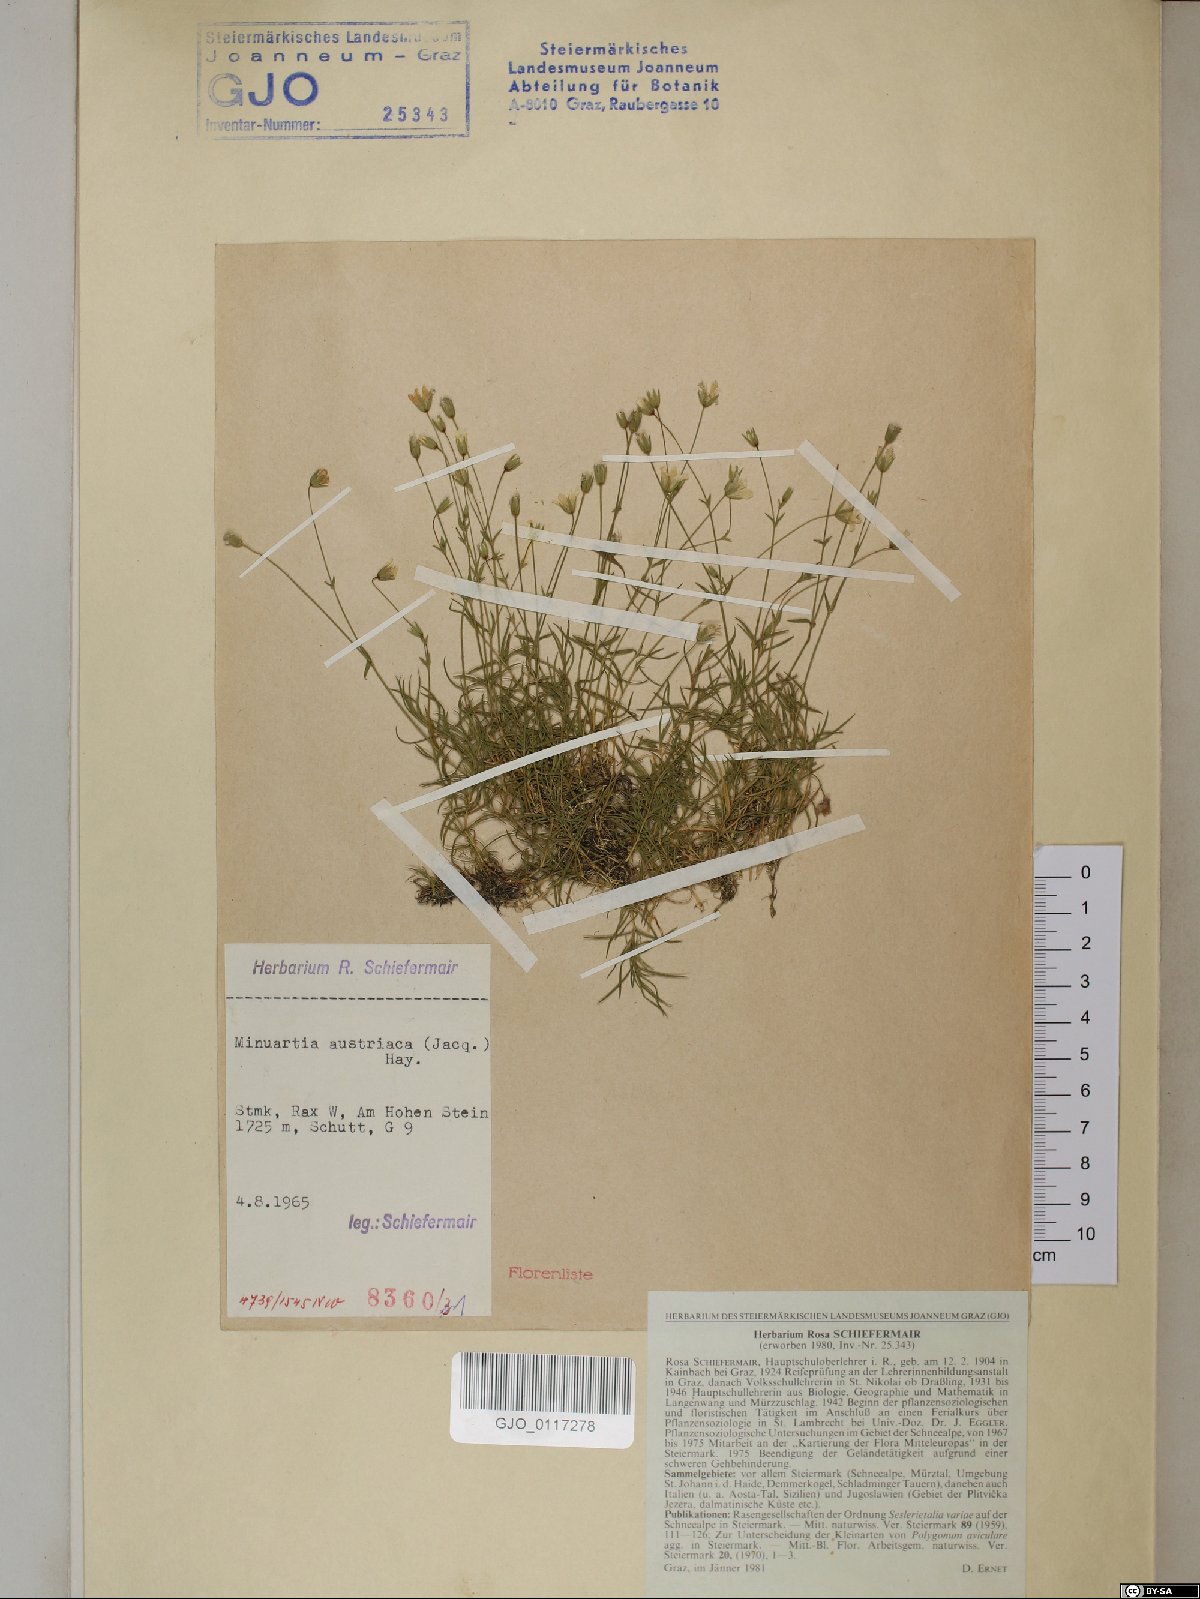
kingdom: Plantae
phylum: Tracheophyta
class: Magnoliopsida
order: Caryophyllales
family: Caryophyllaceae
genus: Sabulina
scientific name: Sabulina austriaca
